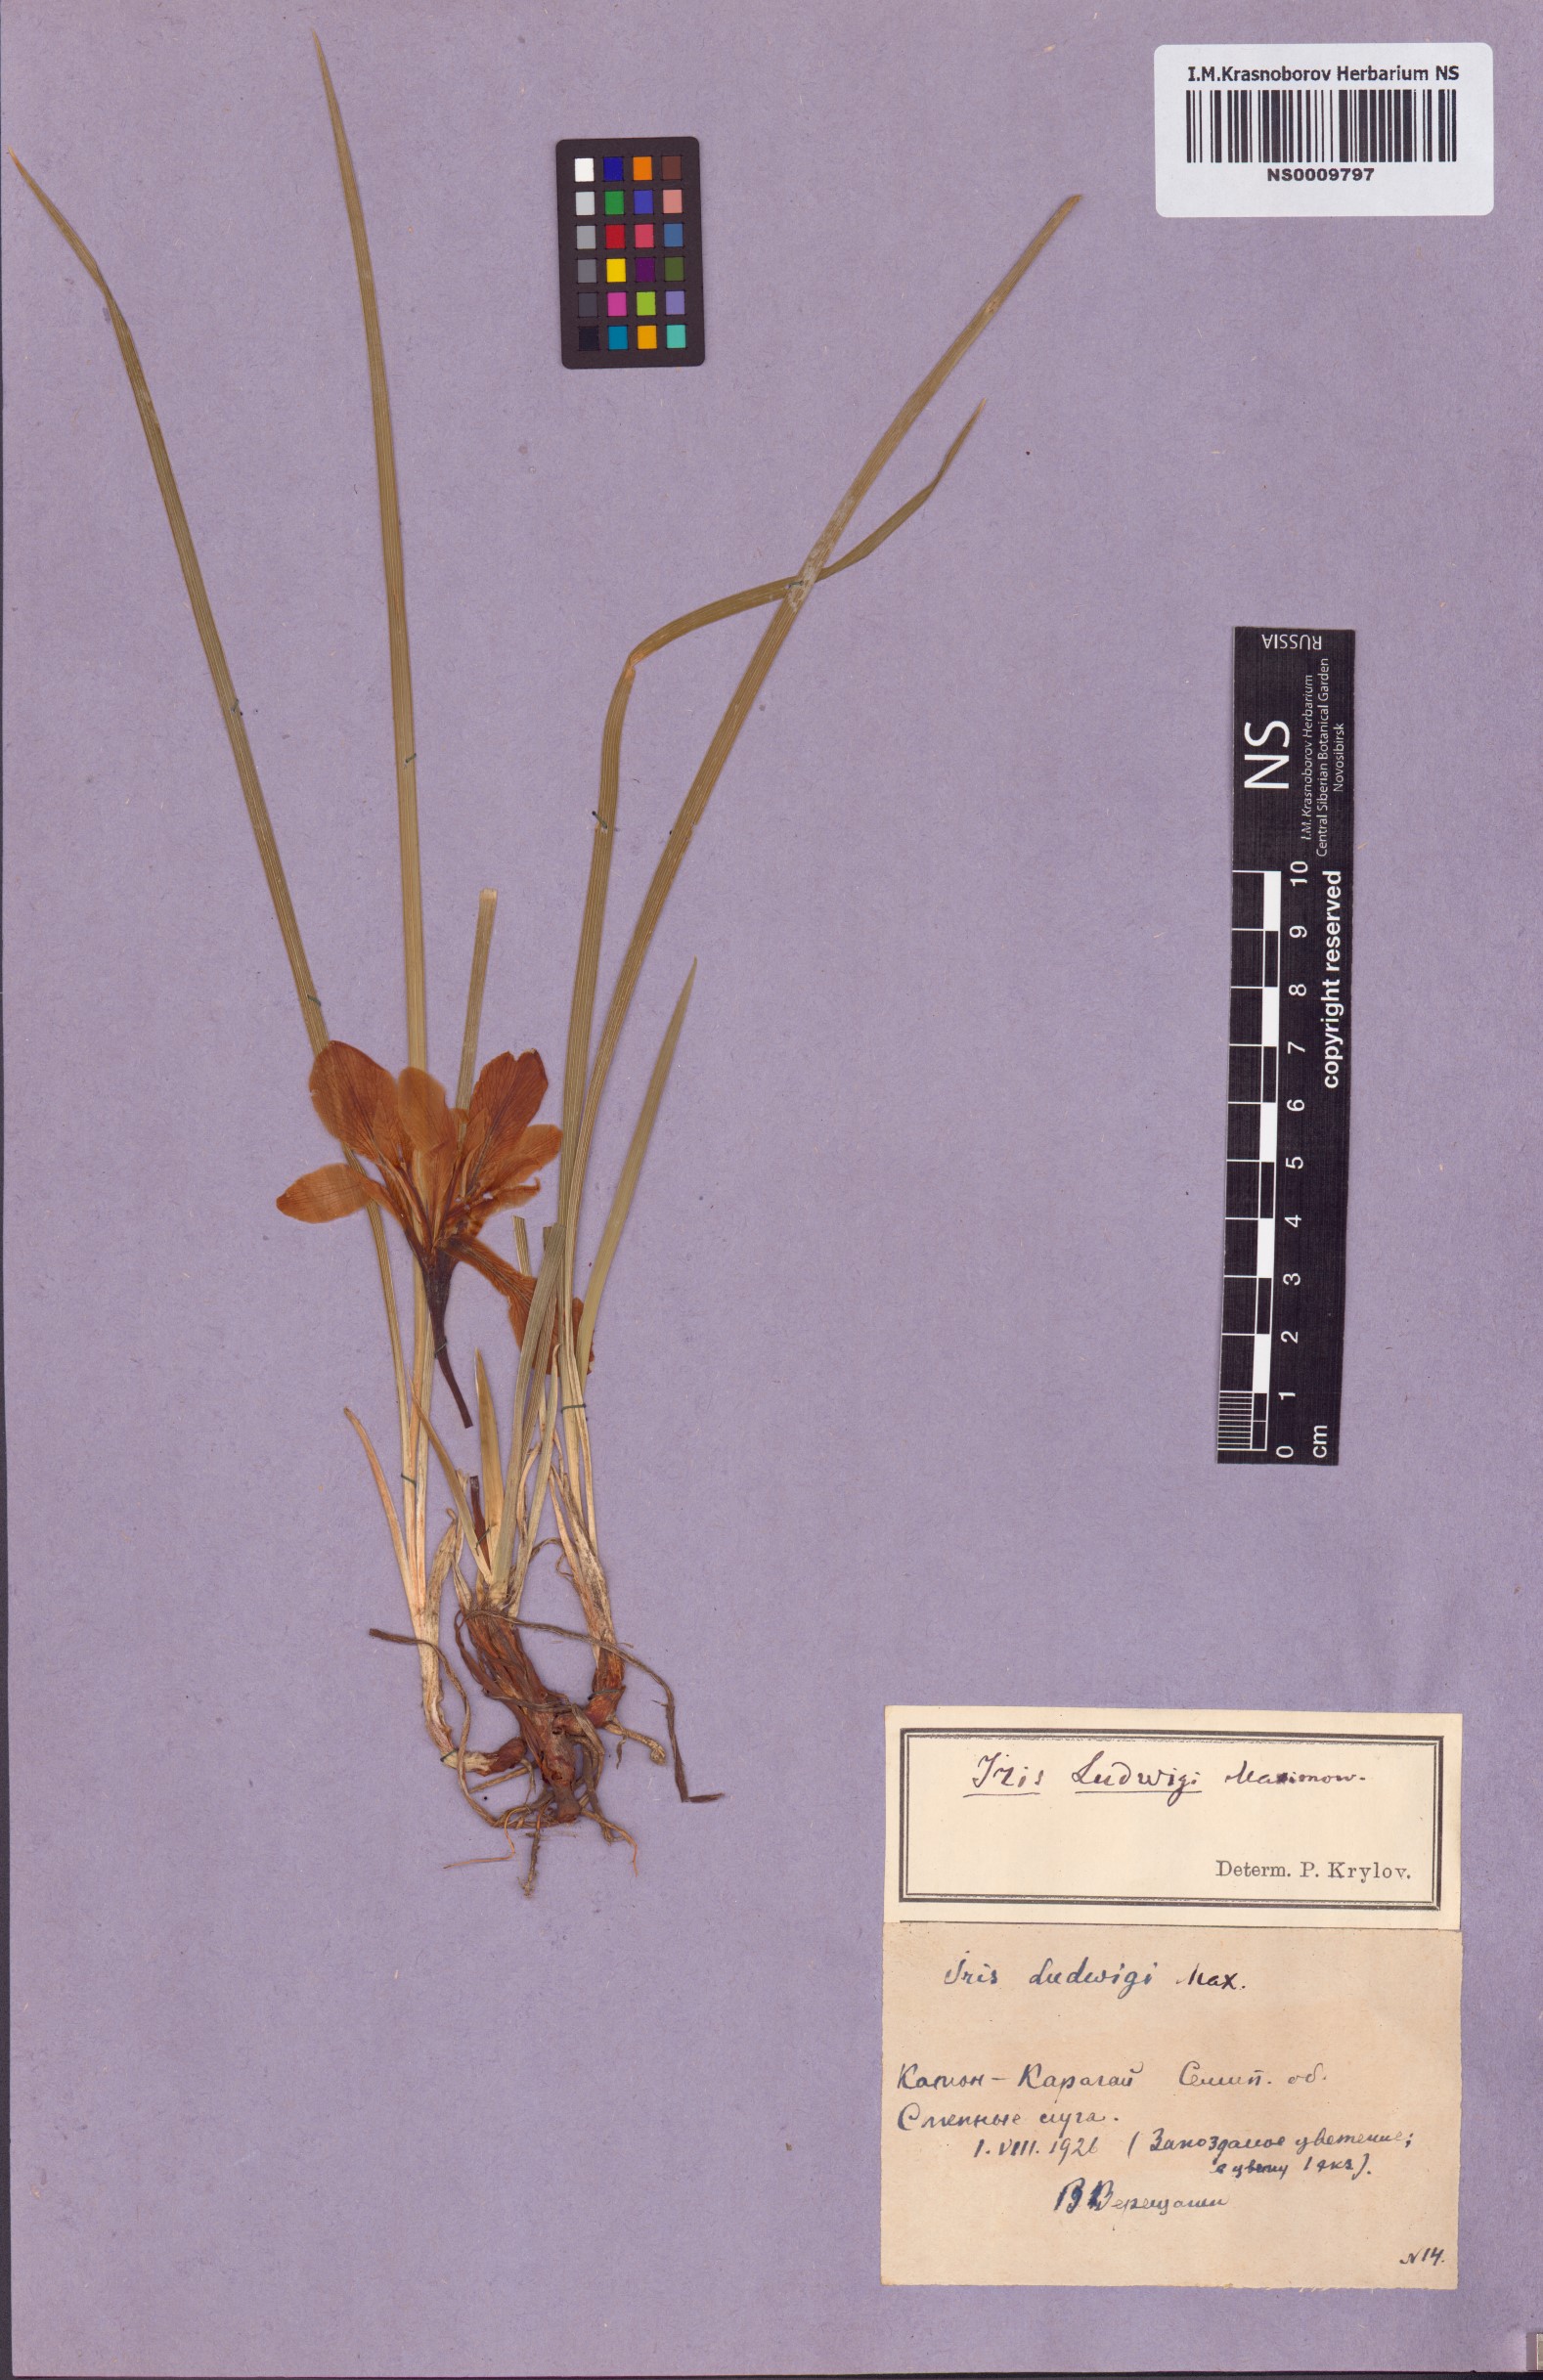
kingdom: Plantae
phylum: Tracheophyta
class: Liliopsida
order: Asparagales
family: Iridaceae
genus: Iris
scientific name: Iris ludwigii
